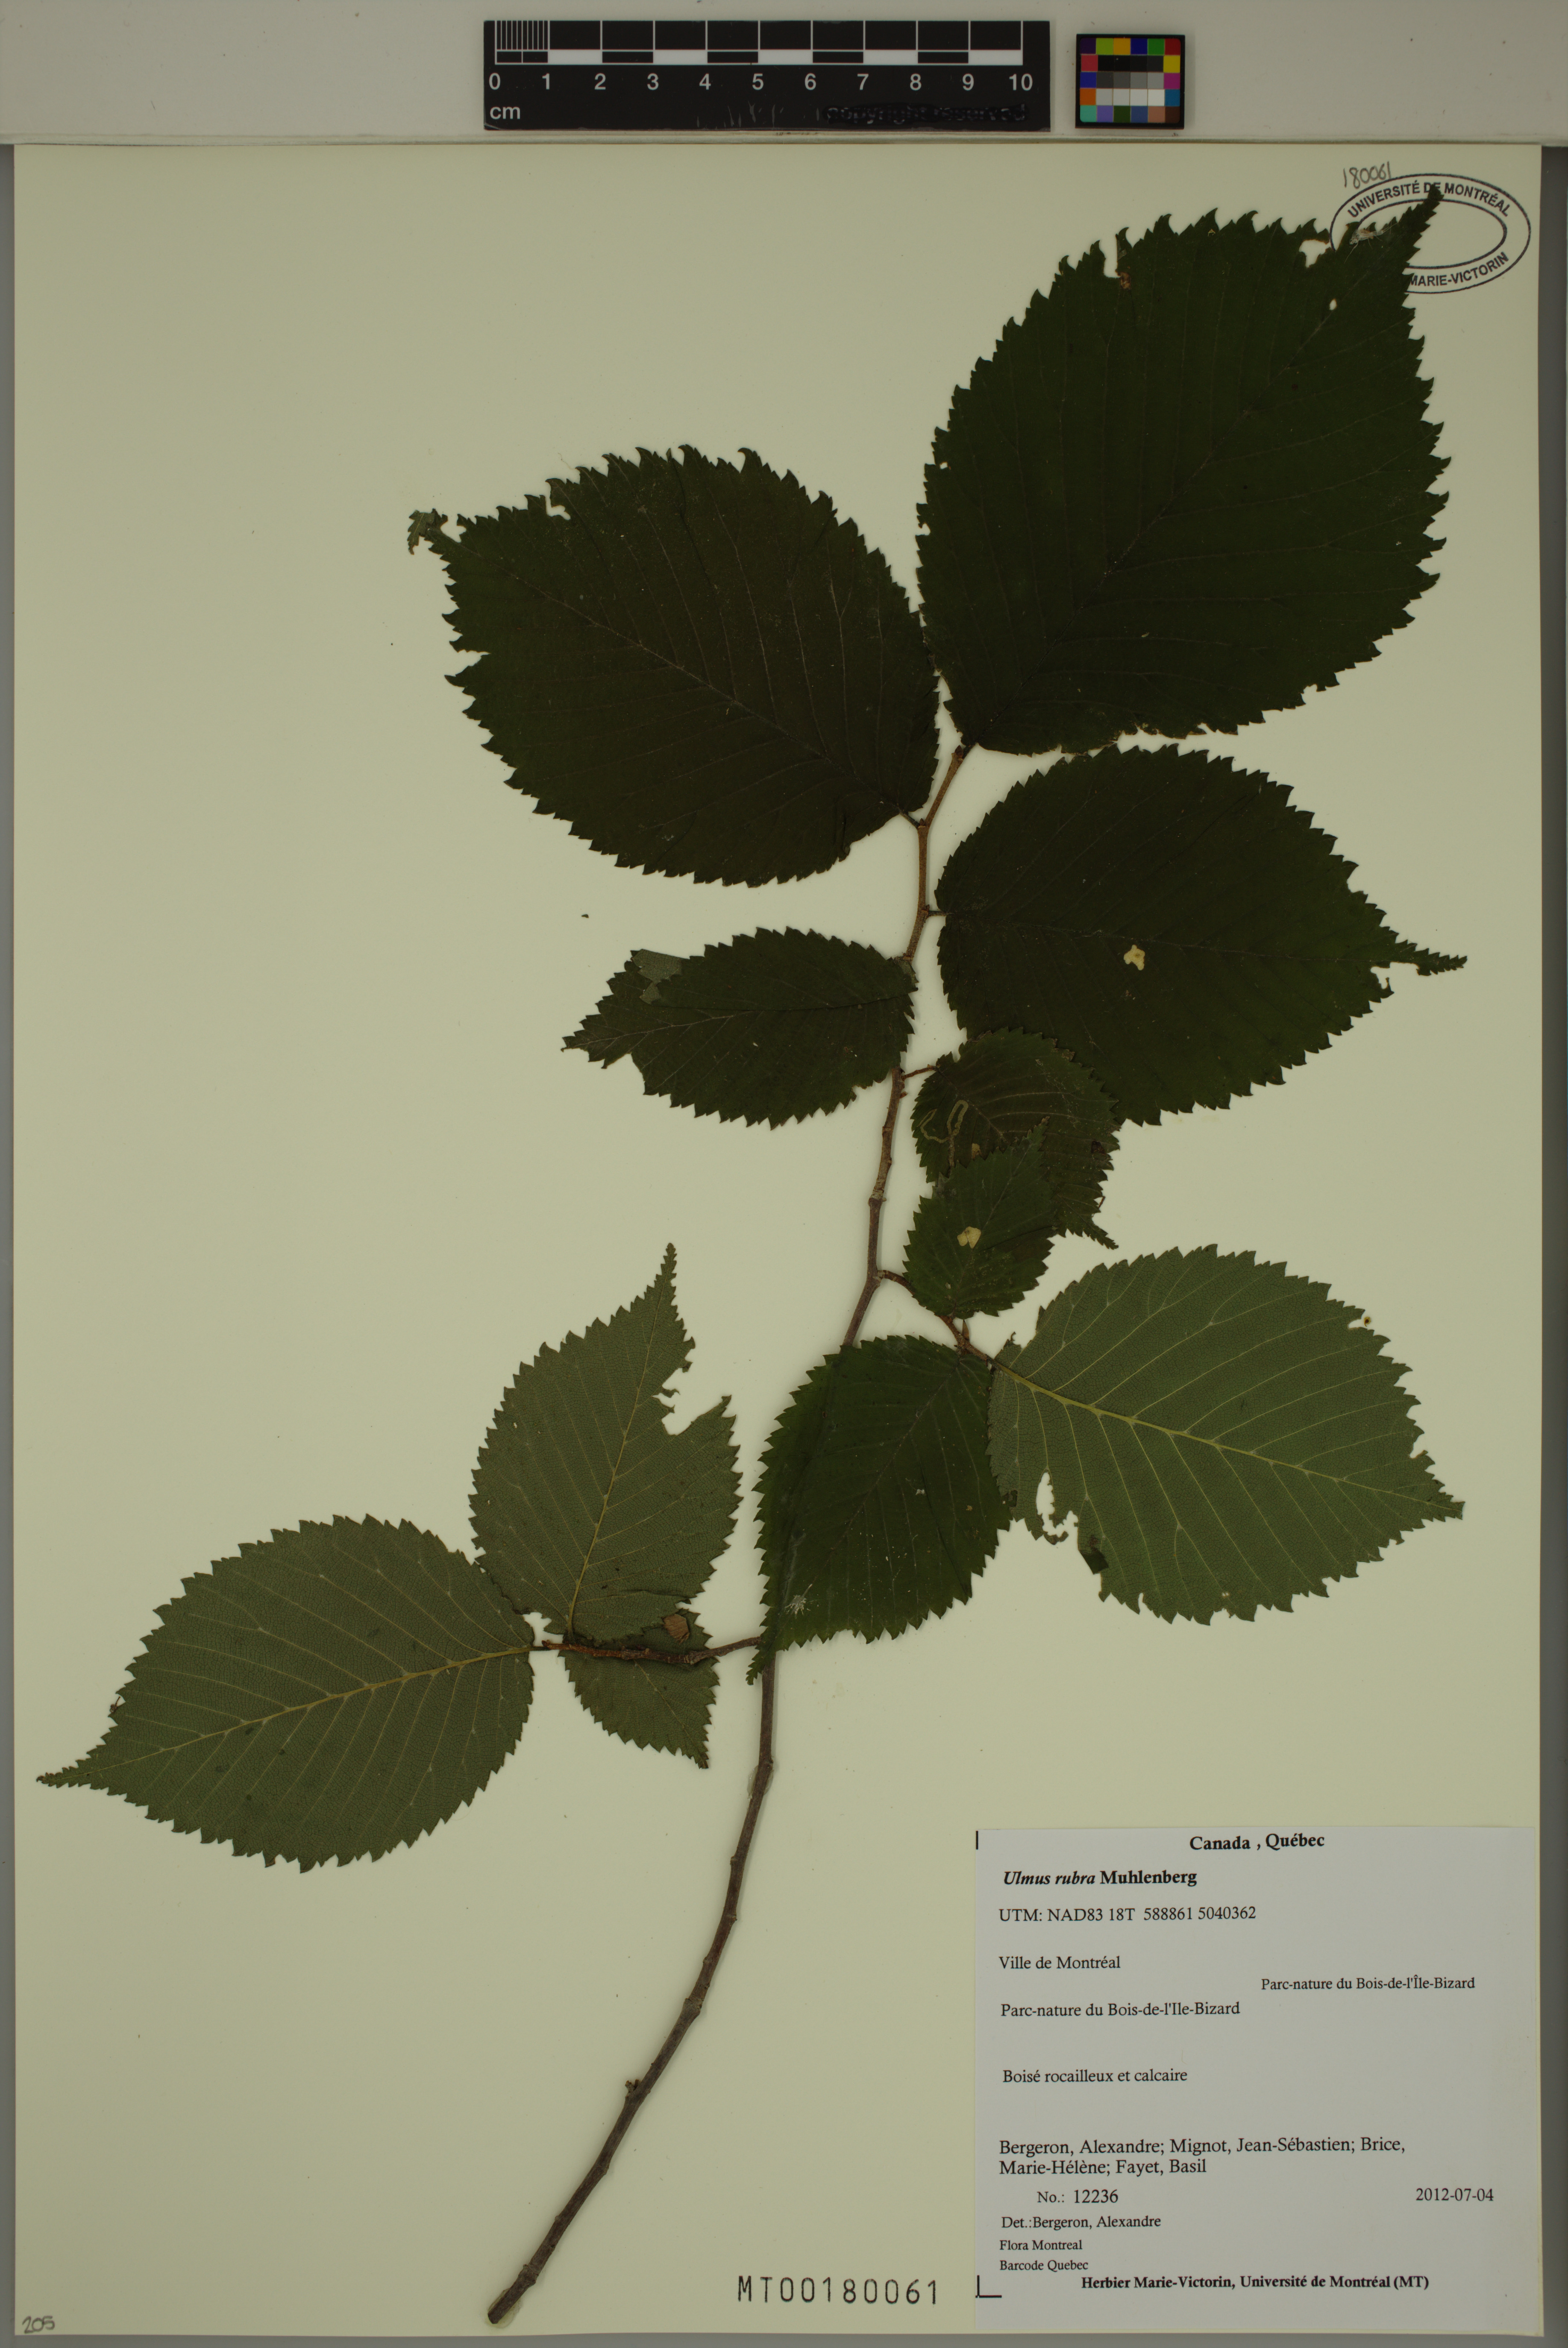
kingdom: Plantae
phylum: Tracheophyta
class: Magnoliopsida
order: Rosales
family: Ulmaceae
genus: Ulmus
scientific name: Ulmus rubra
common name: Slippery elm
